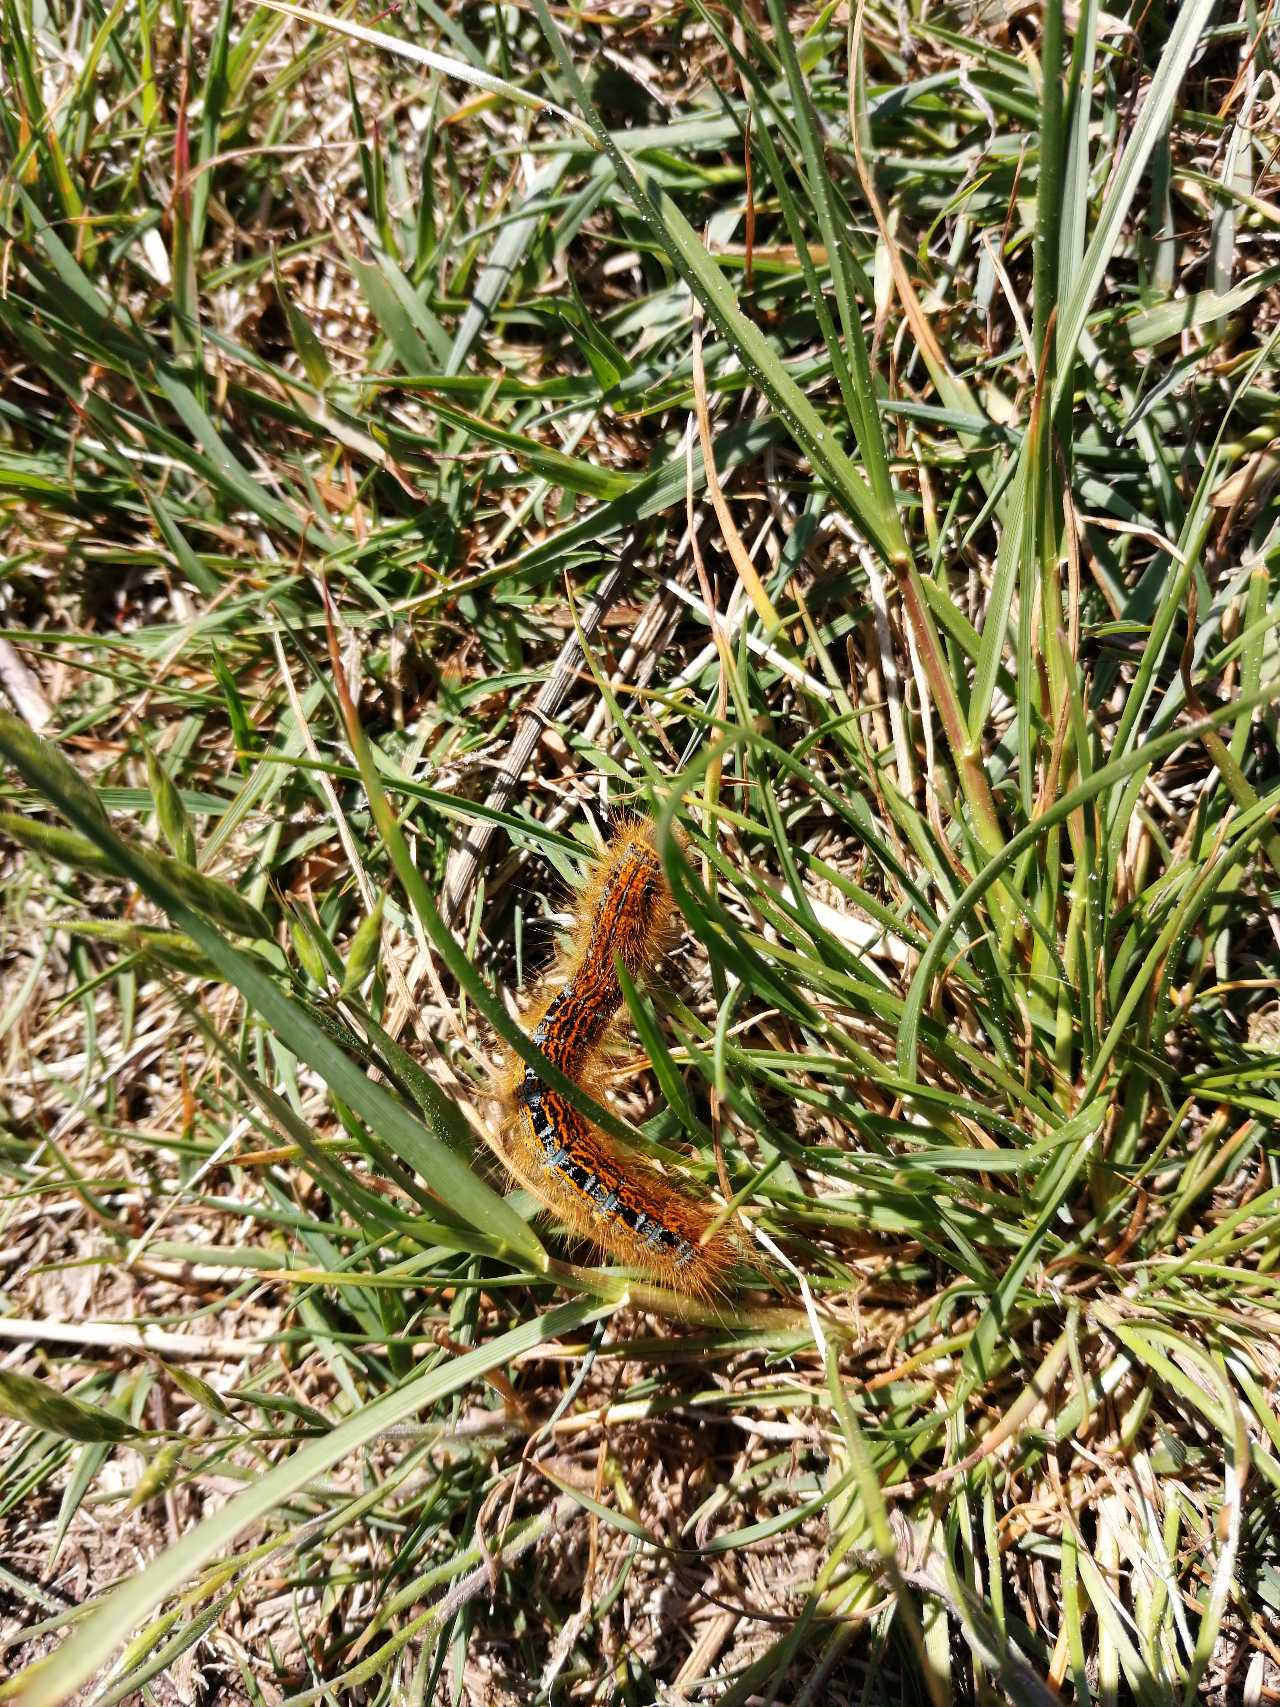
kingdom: Animalia
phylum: Arthropoda
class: Insecta
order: Lepidoptera
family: Lasiocampidae
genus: Malacosoma
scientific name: Malacosoma castrensis
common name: Redespinder
